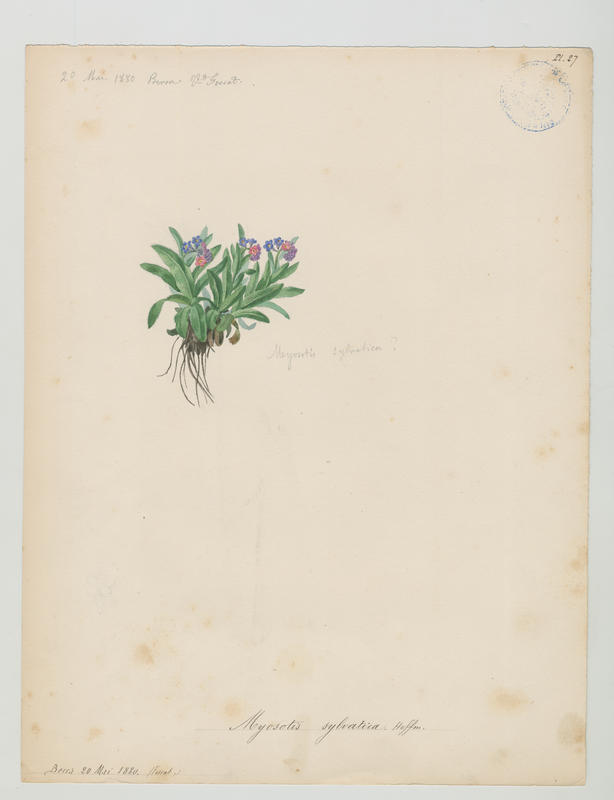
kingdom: Plantae
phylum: Tracheophyta
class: Magnoliopsida
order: Boraginales
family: Boraginaceae
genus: Myosotis
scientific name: Myosotis sylvatica
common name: Wood forget-me-not
